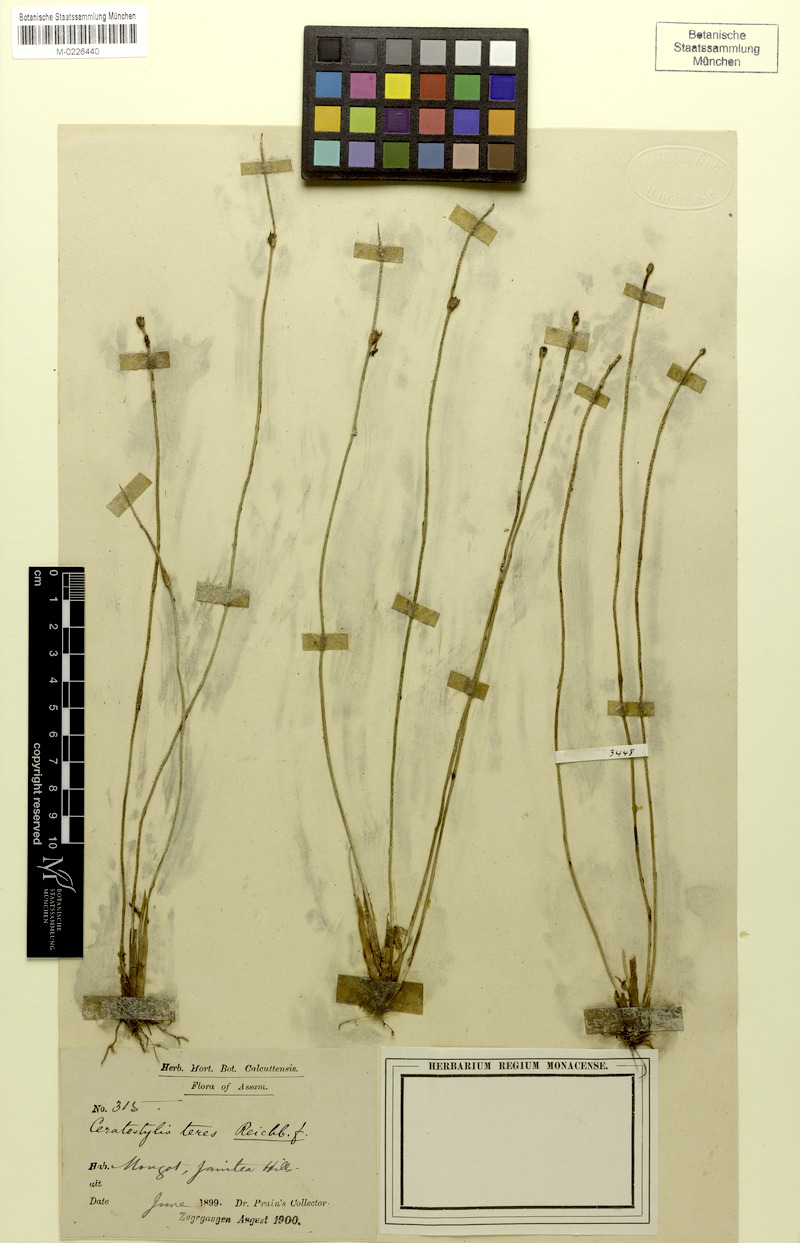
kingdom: Plantae
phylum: Tracheophyta
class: Liliopsida
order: Asparagales
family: Orchidaceae
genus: Ceratostylis
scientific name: Ceratostylis subulata
